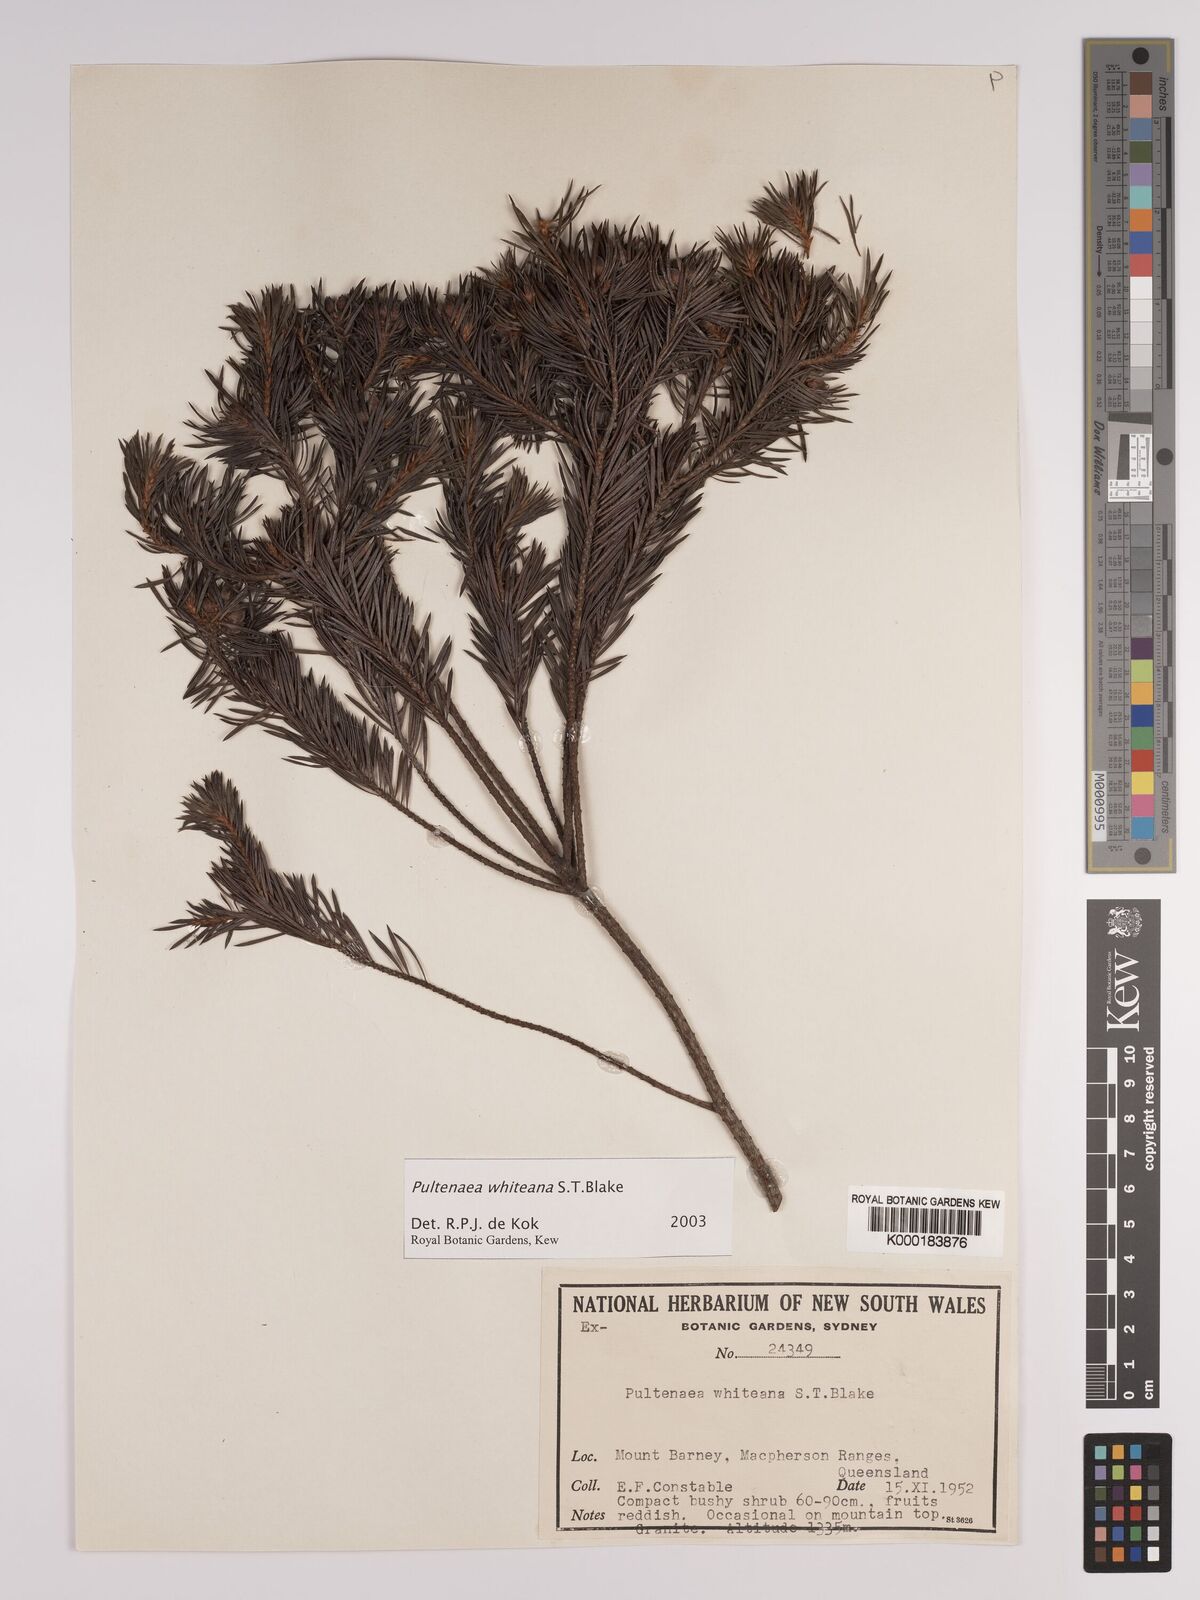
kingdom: Plantae
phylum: Tracheophyta
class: Magnoliopsida
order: Fabales
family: Fabaceae
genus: Pultenaea
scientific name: Pultenaea whiteana
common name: Mount barney bush pea
